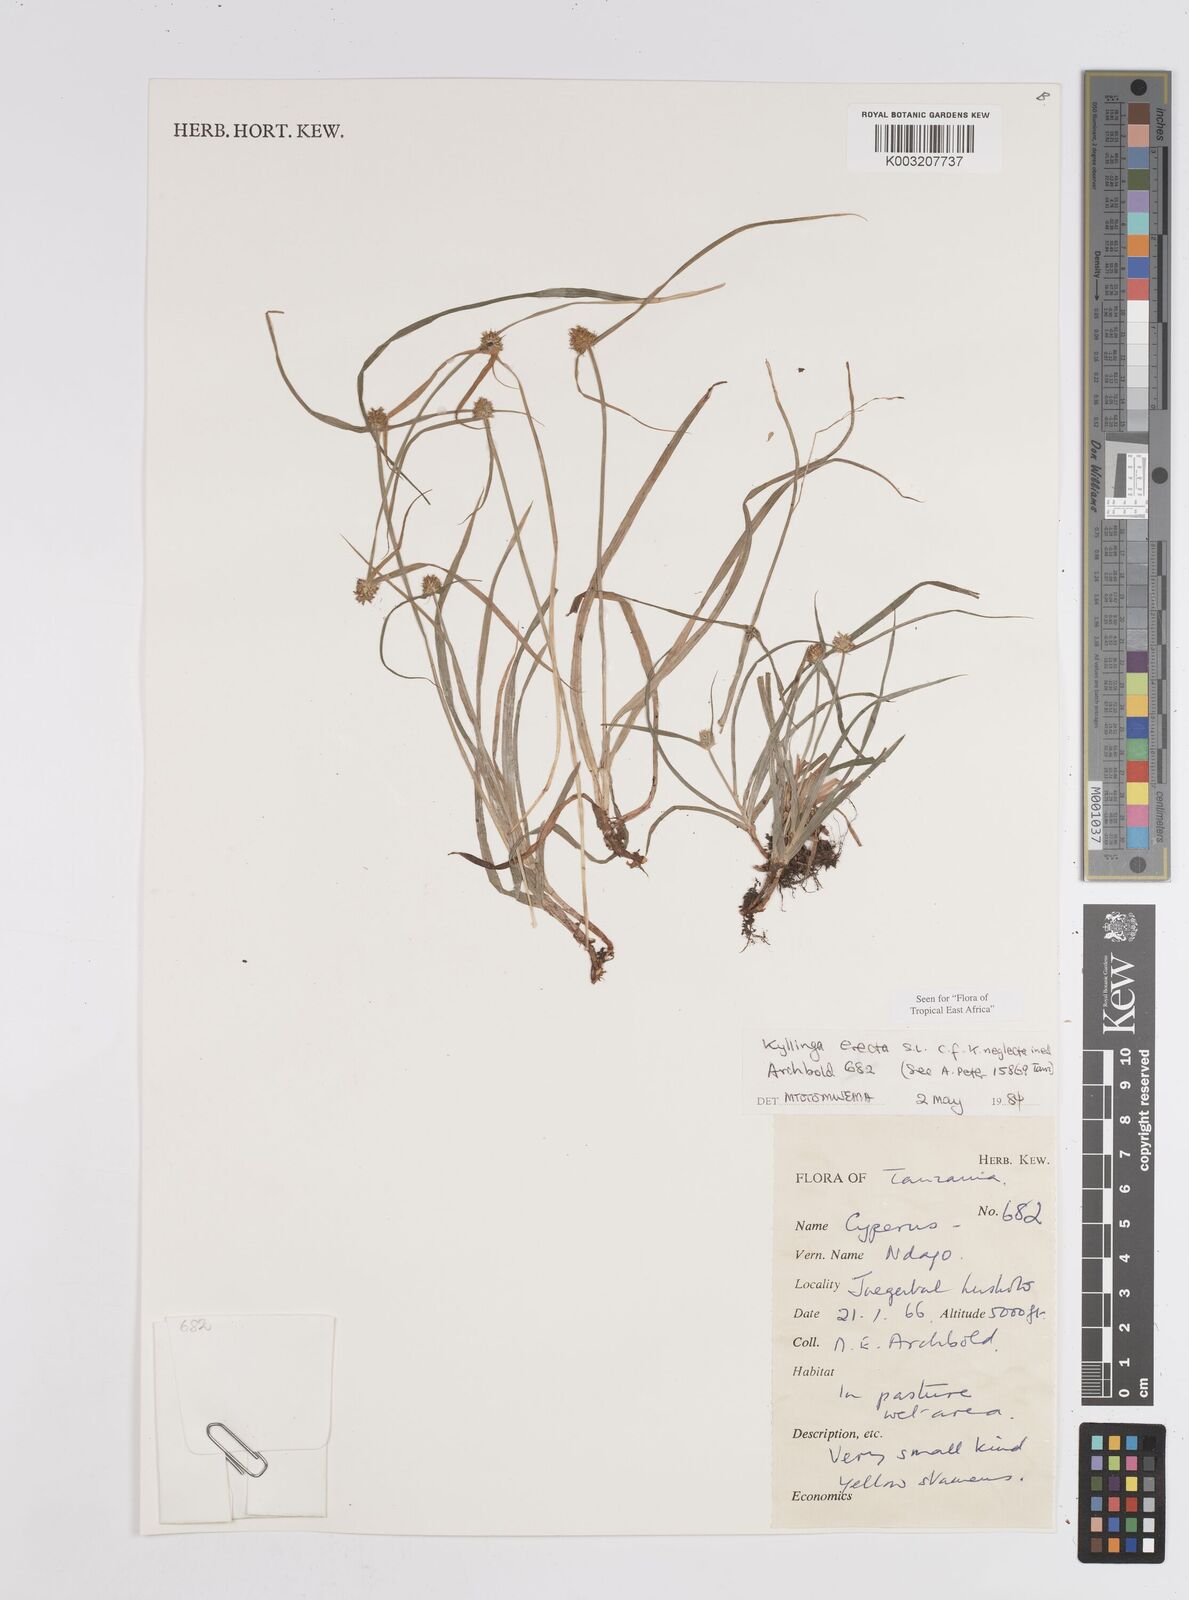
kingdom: Plantae
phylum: Tracheophyta
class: Liliopsida
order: Poales
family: Cyperaceae
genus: Cyperus
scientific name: Cyperus erectus
